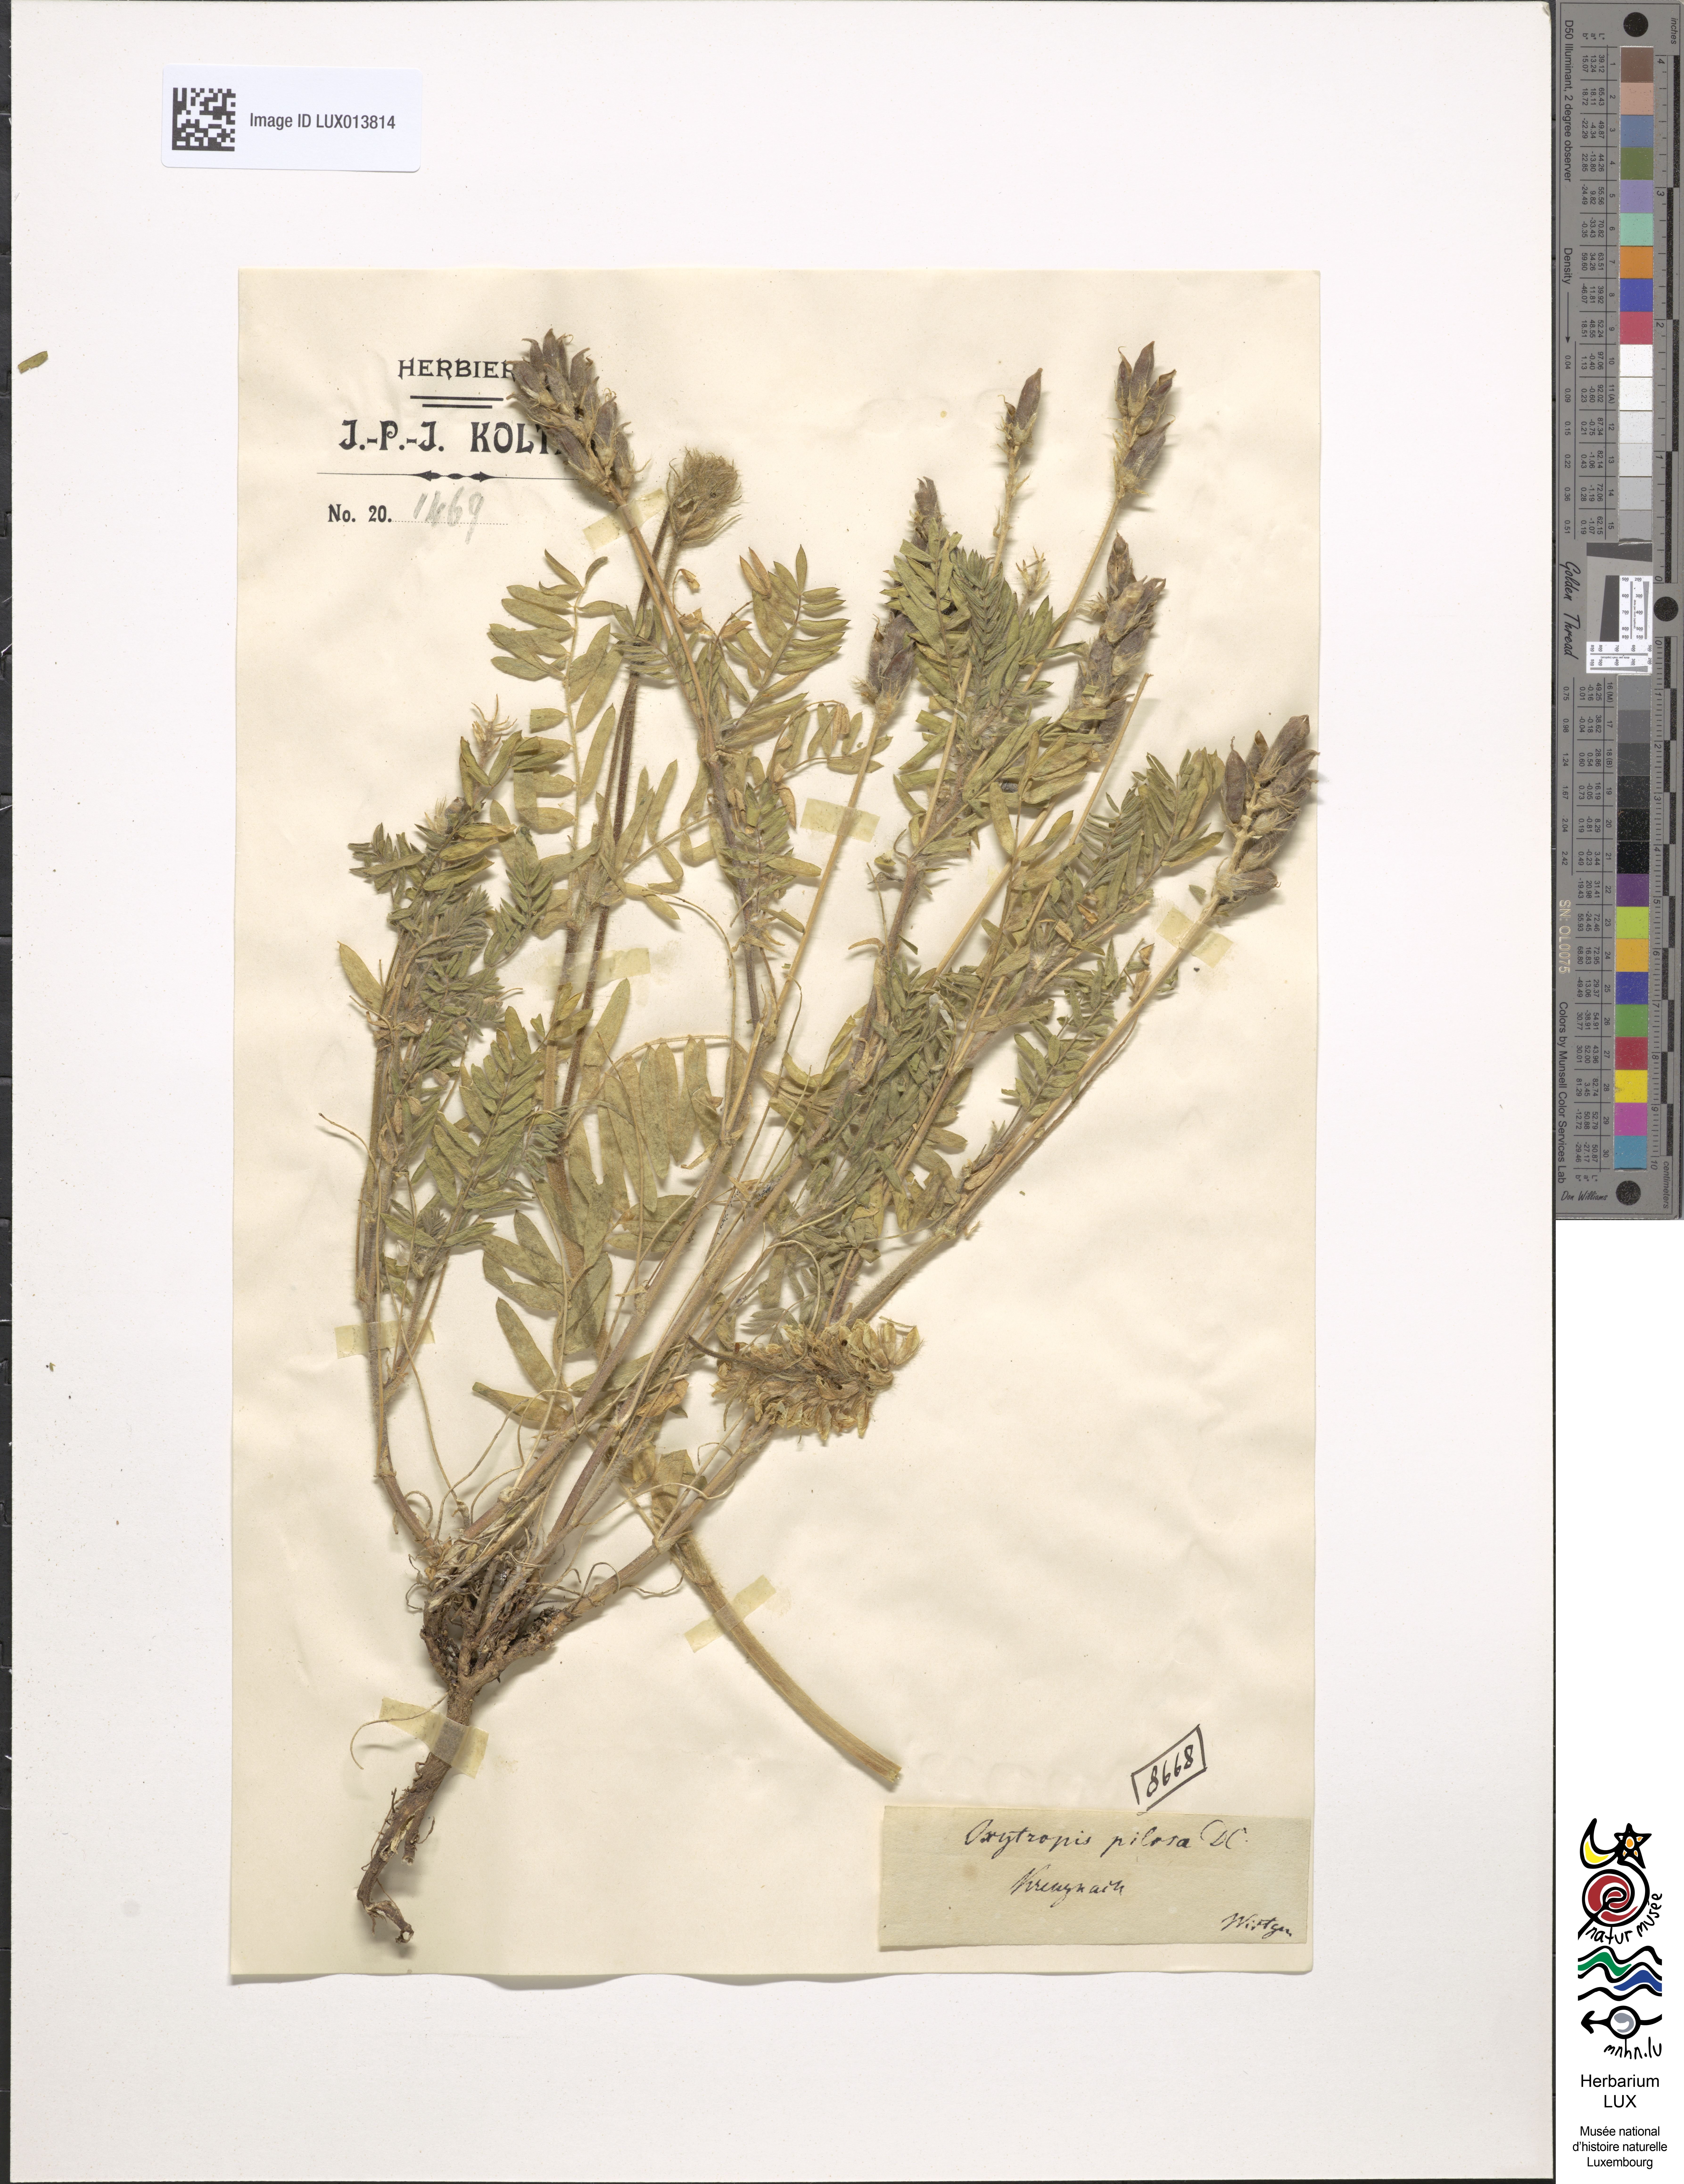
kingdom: Plantae
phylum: Tracheophyta
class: Magnoliopsida
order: Fabales
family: Fabaceae
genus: Oxytropis
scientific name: Oxytropis pilosa
